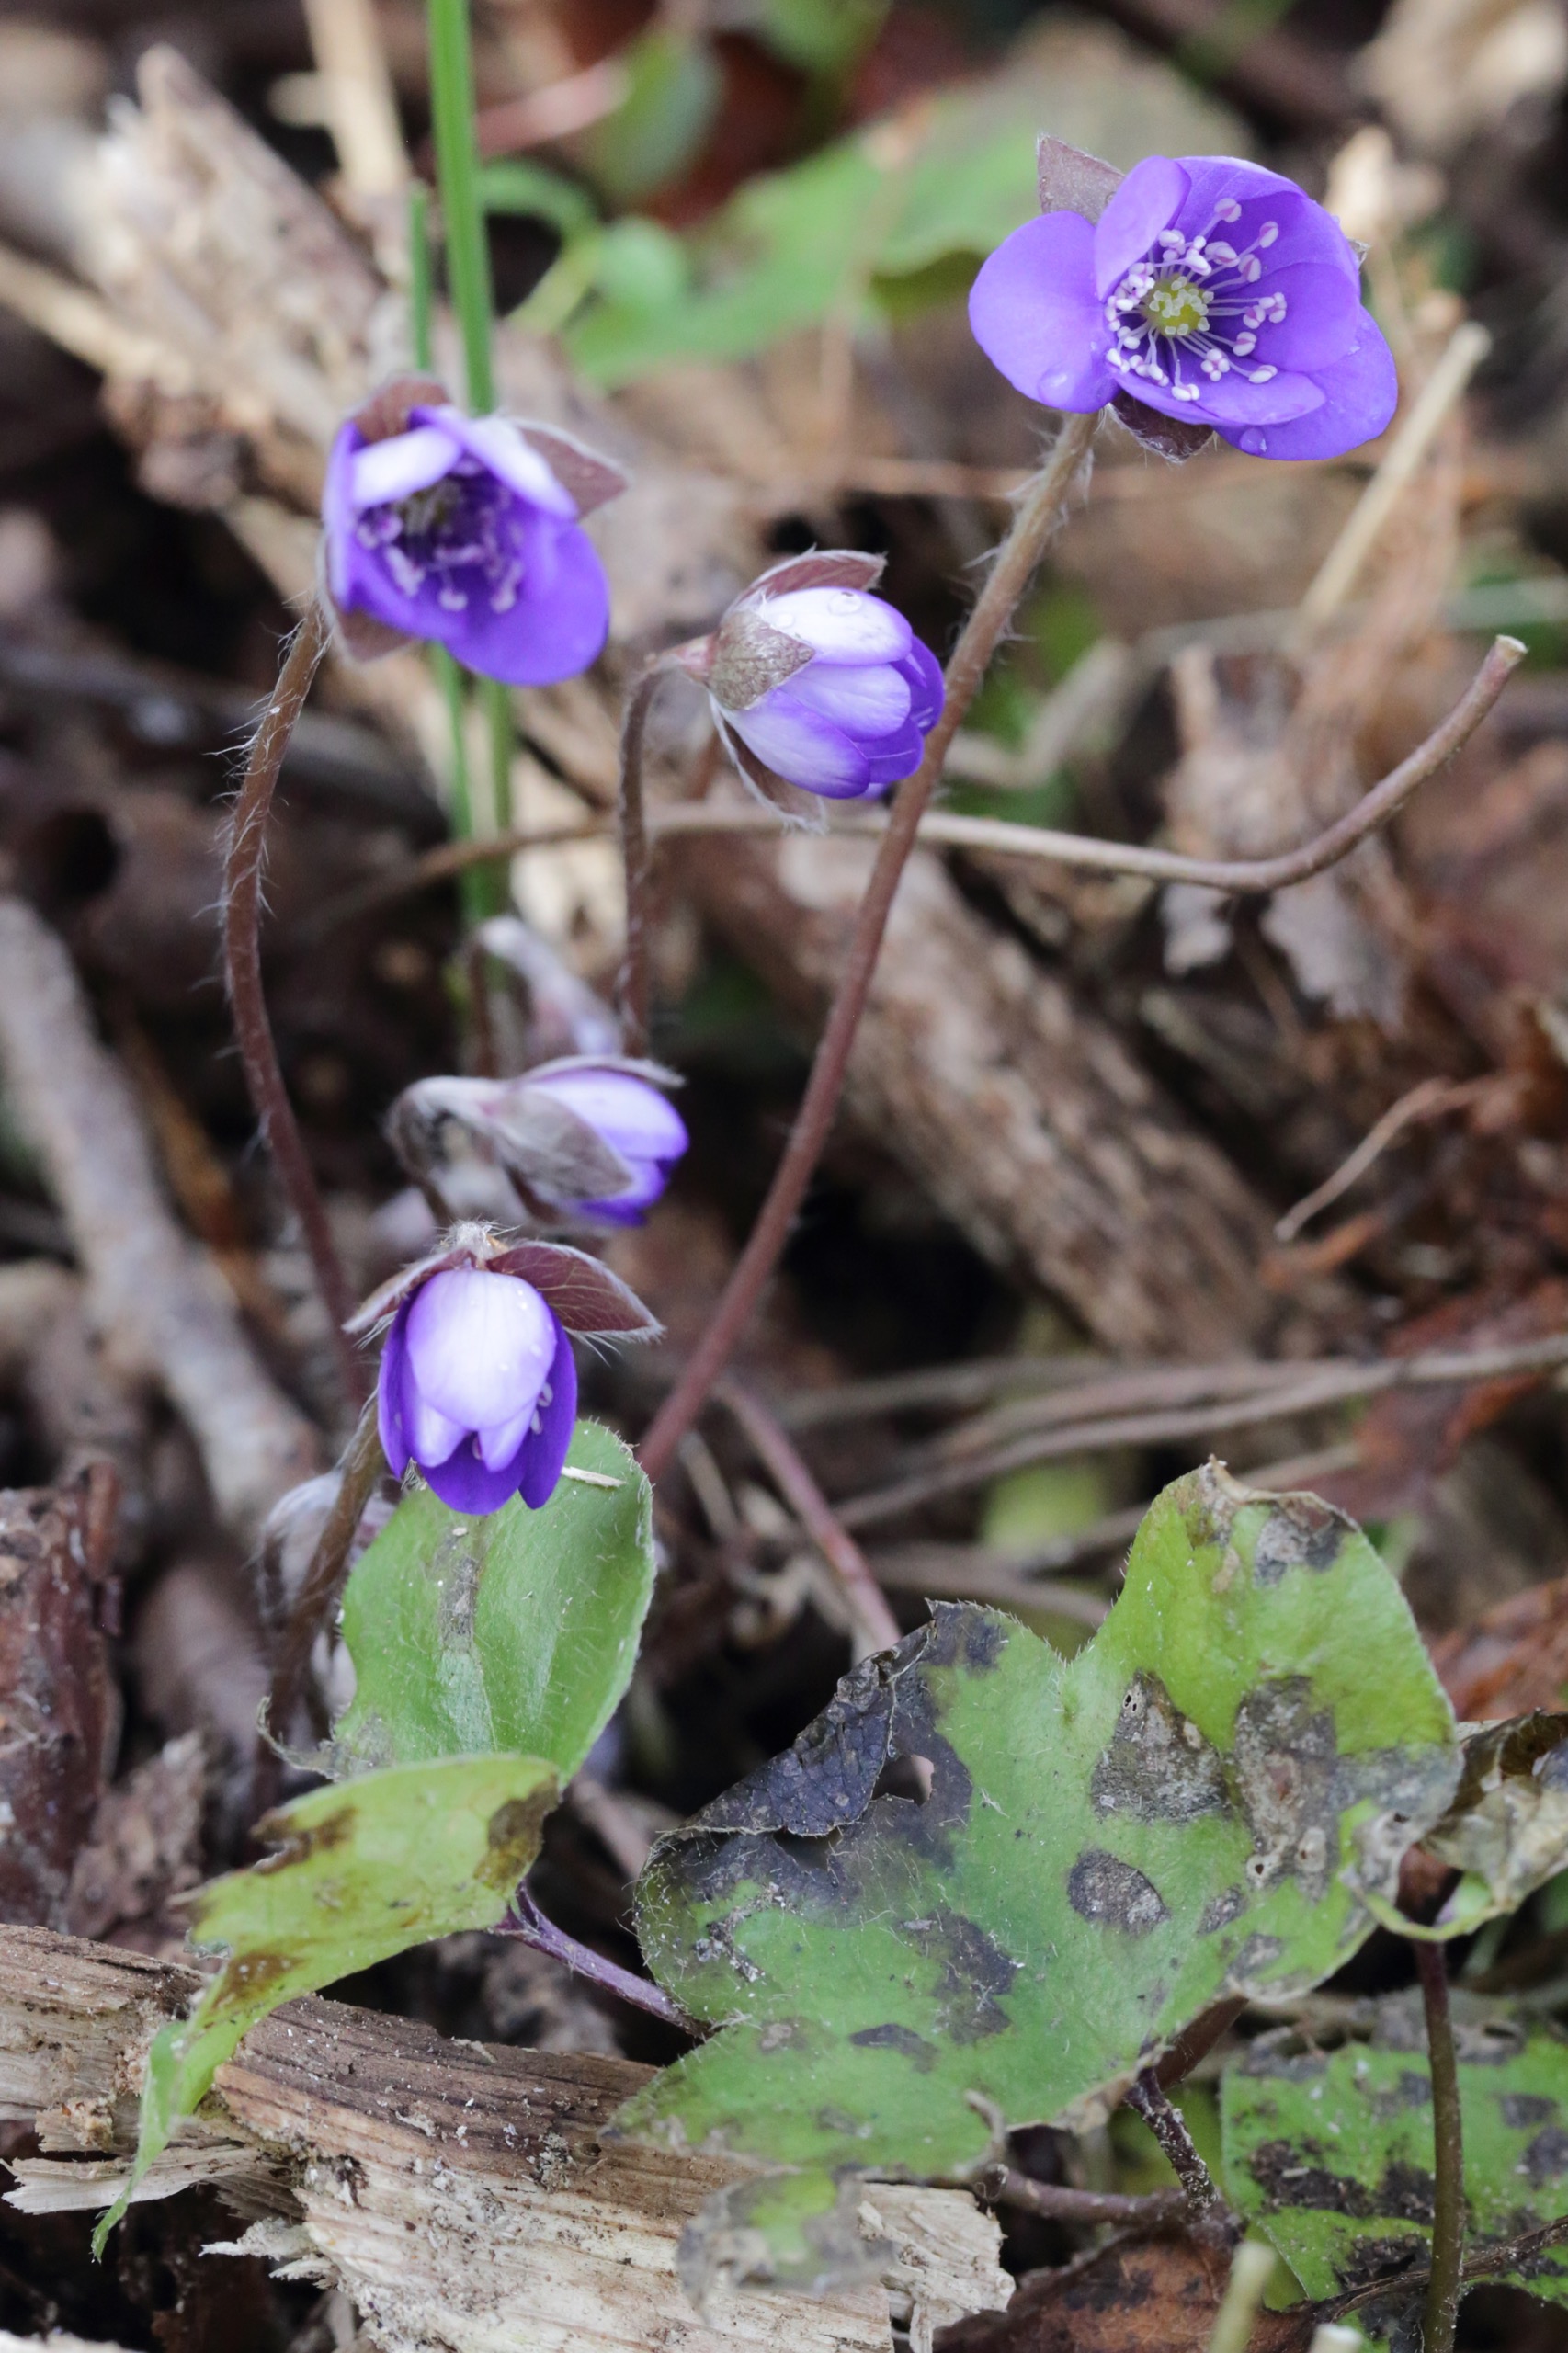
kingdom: Plantae
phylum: Tracheophyta
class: Magnoliopsida
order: Ranunculales
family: Ranunculaceae
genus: Hepatica
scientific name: Hepatica nobilis
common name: Blå anemone
